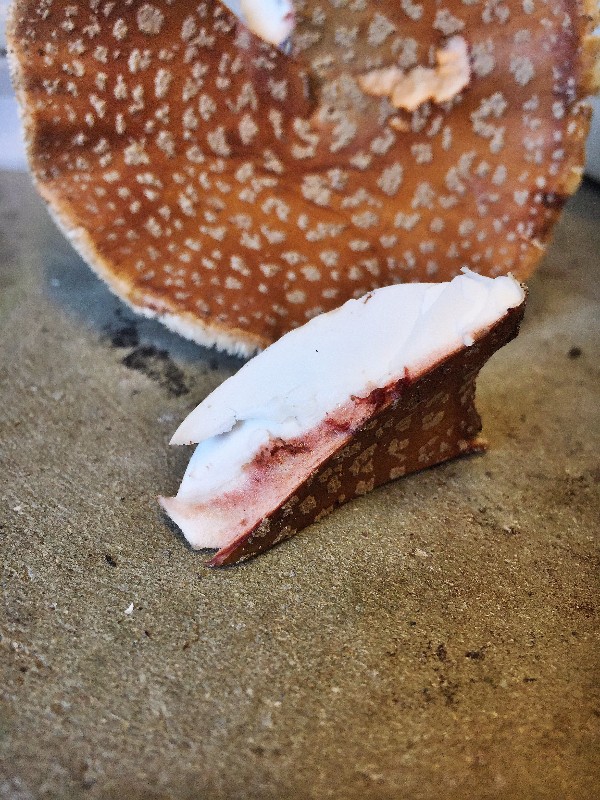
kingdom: Fungi
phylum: Basidiomycota
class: Agaricomycetes
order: Agaricales
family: Amanitaceae
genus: Amanita
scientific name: Amanita rubescens
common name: rødmende fluesvamp
